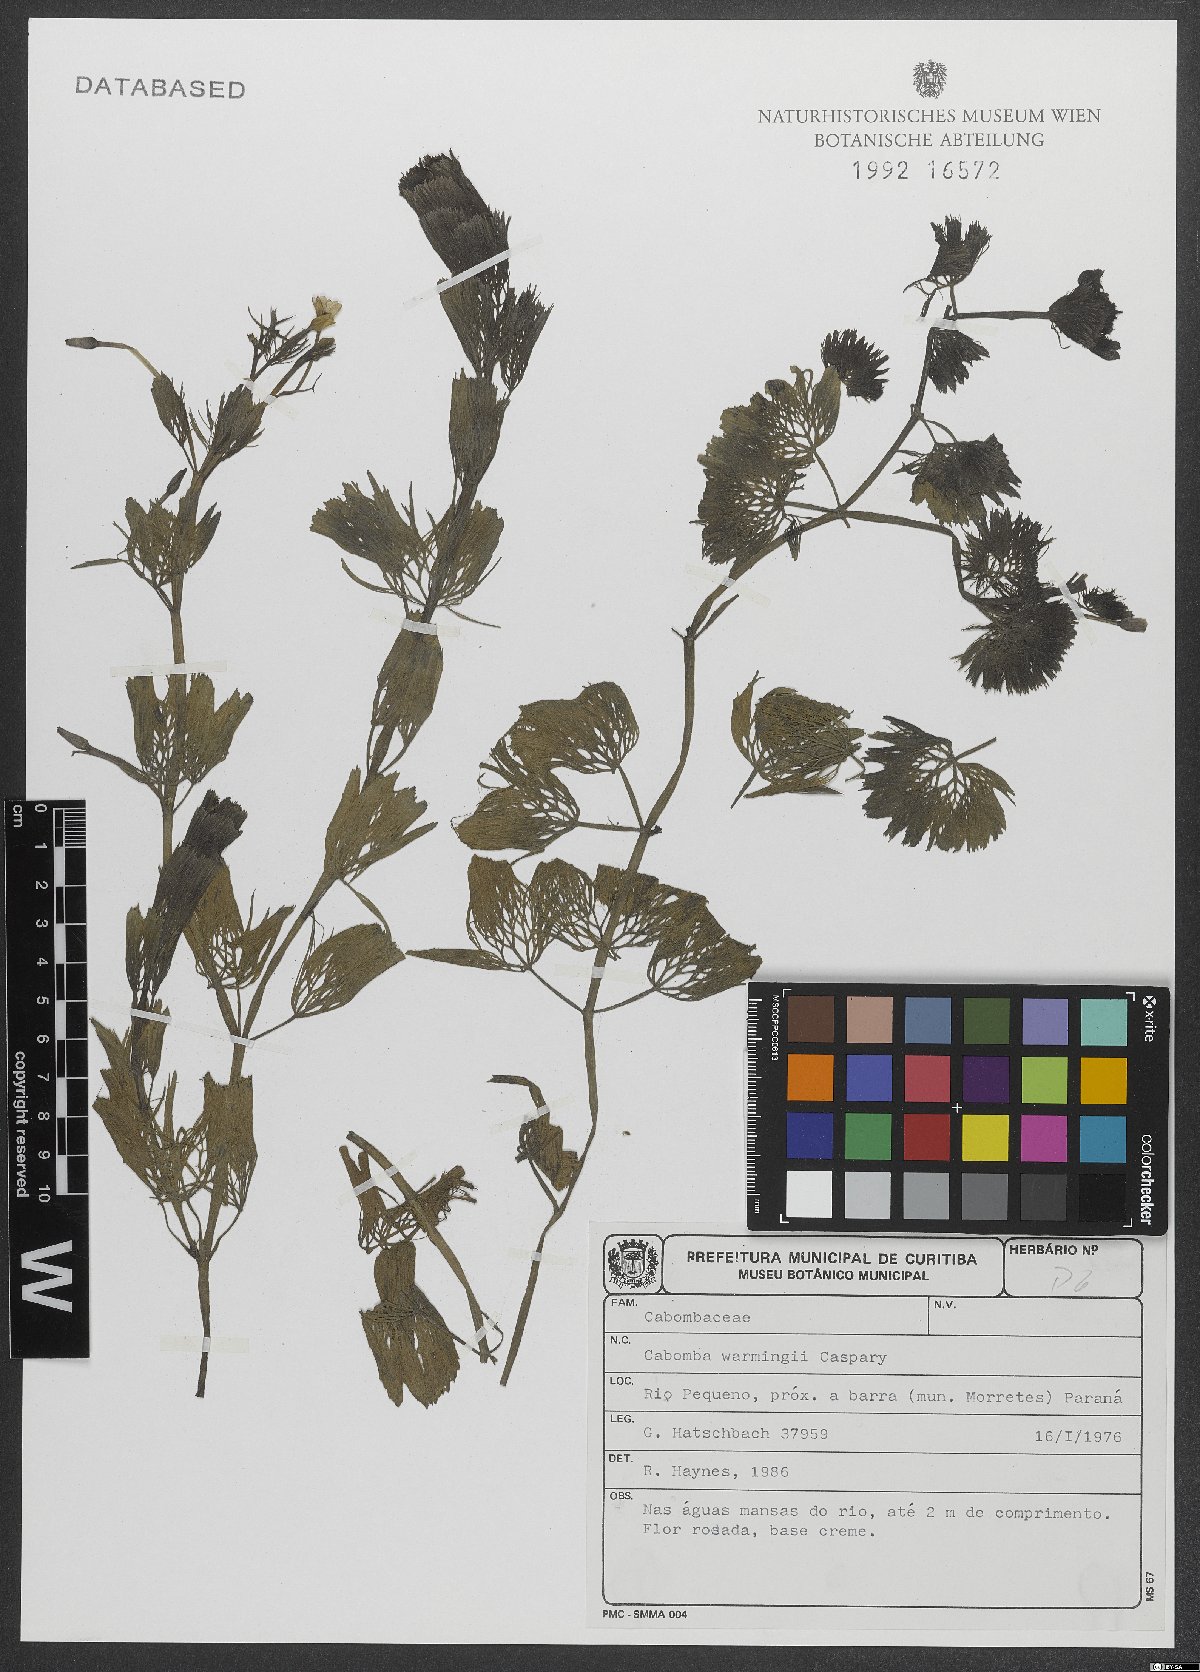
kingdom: Plantae
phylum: Tracheophyta
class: Magnoliopsida
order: Nymphaeales
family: Cabombaceae
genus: Cabomba
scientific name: Cabomba furcata
